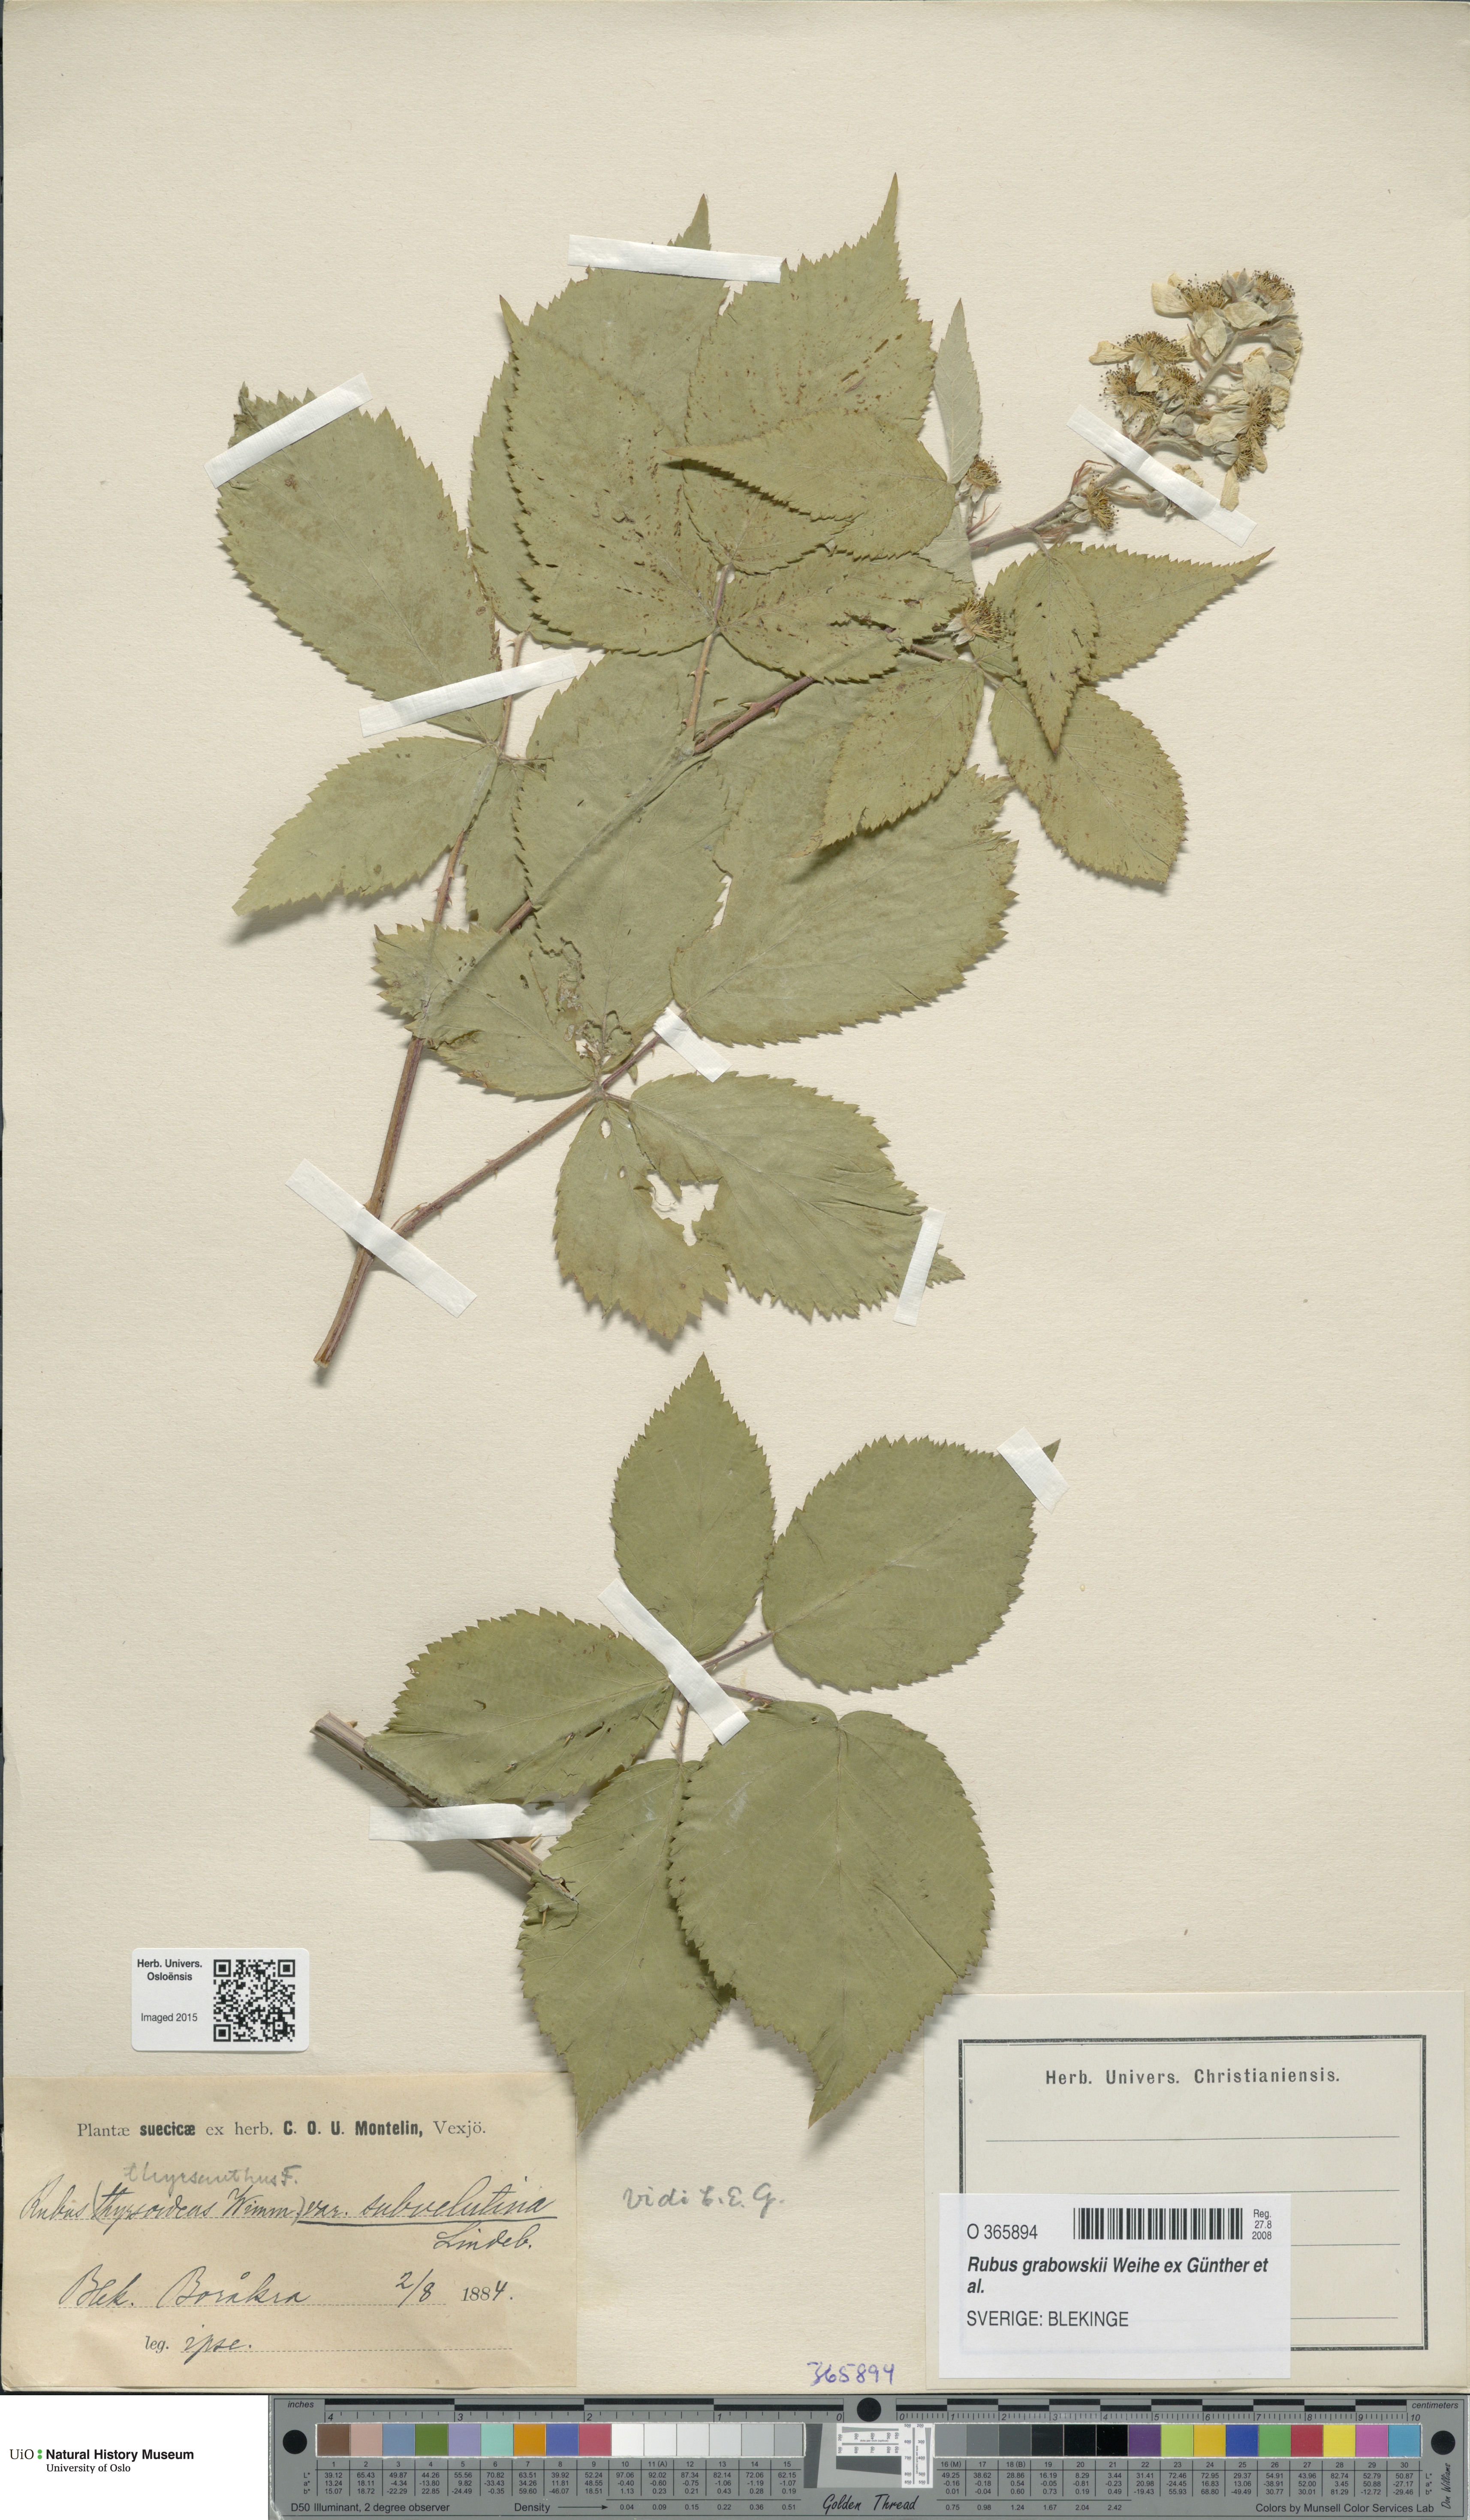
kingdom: Plantae
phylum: Tracheophyta
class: Magnoliopsida
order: Rosales
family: Rosaceae
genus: Rubus
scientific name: Rubus grabowskii
